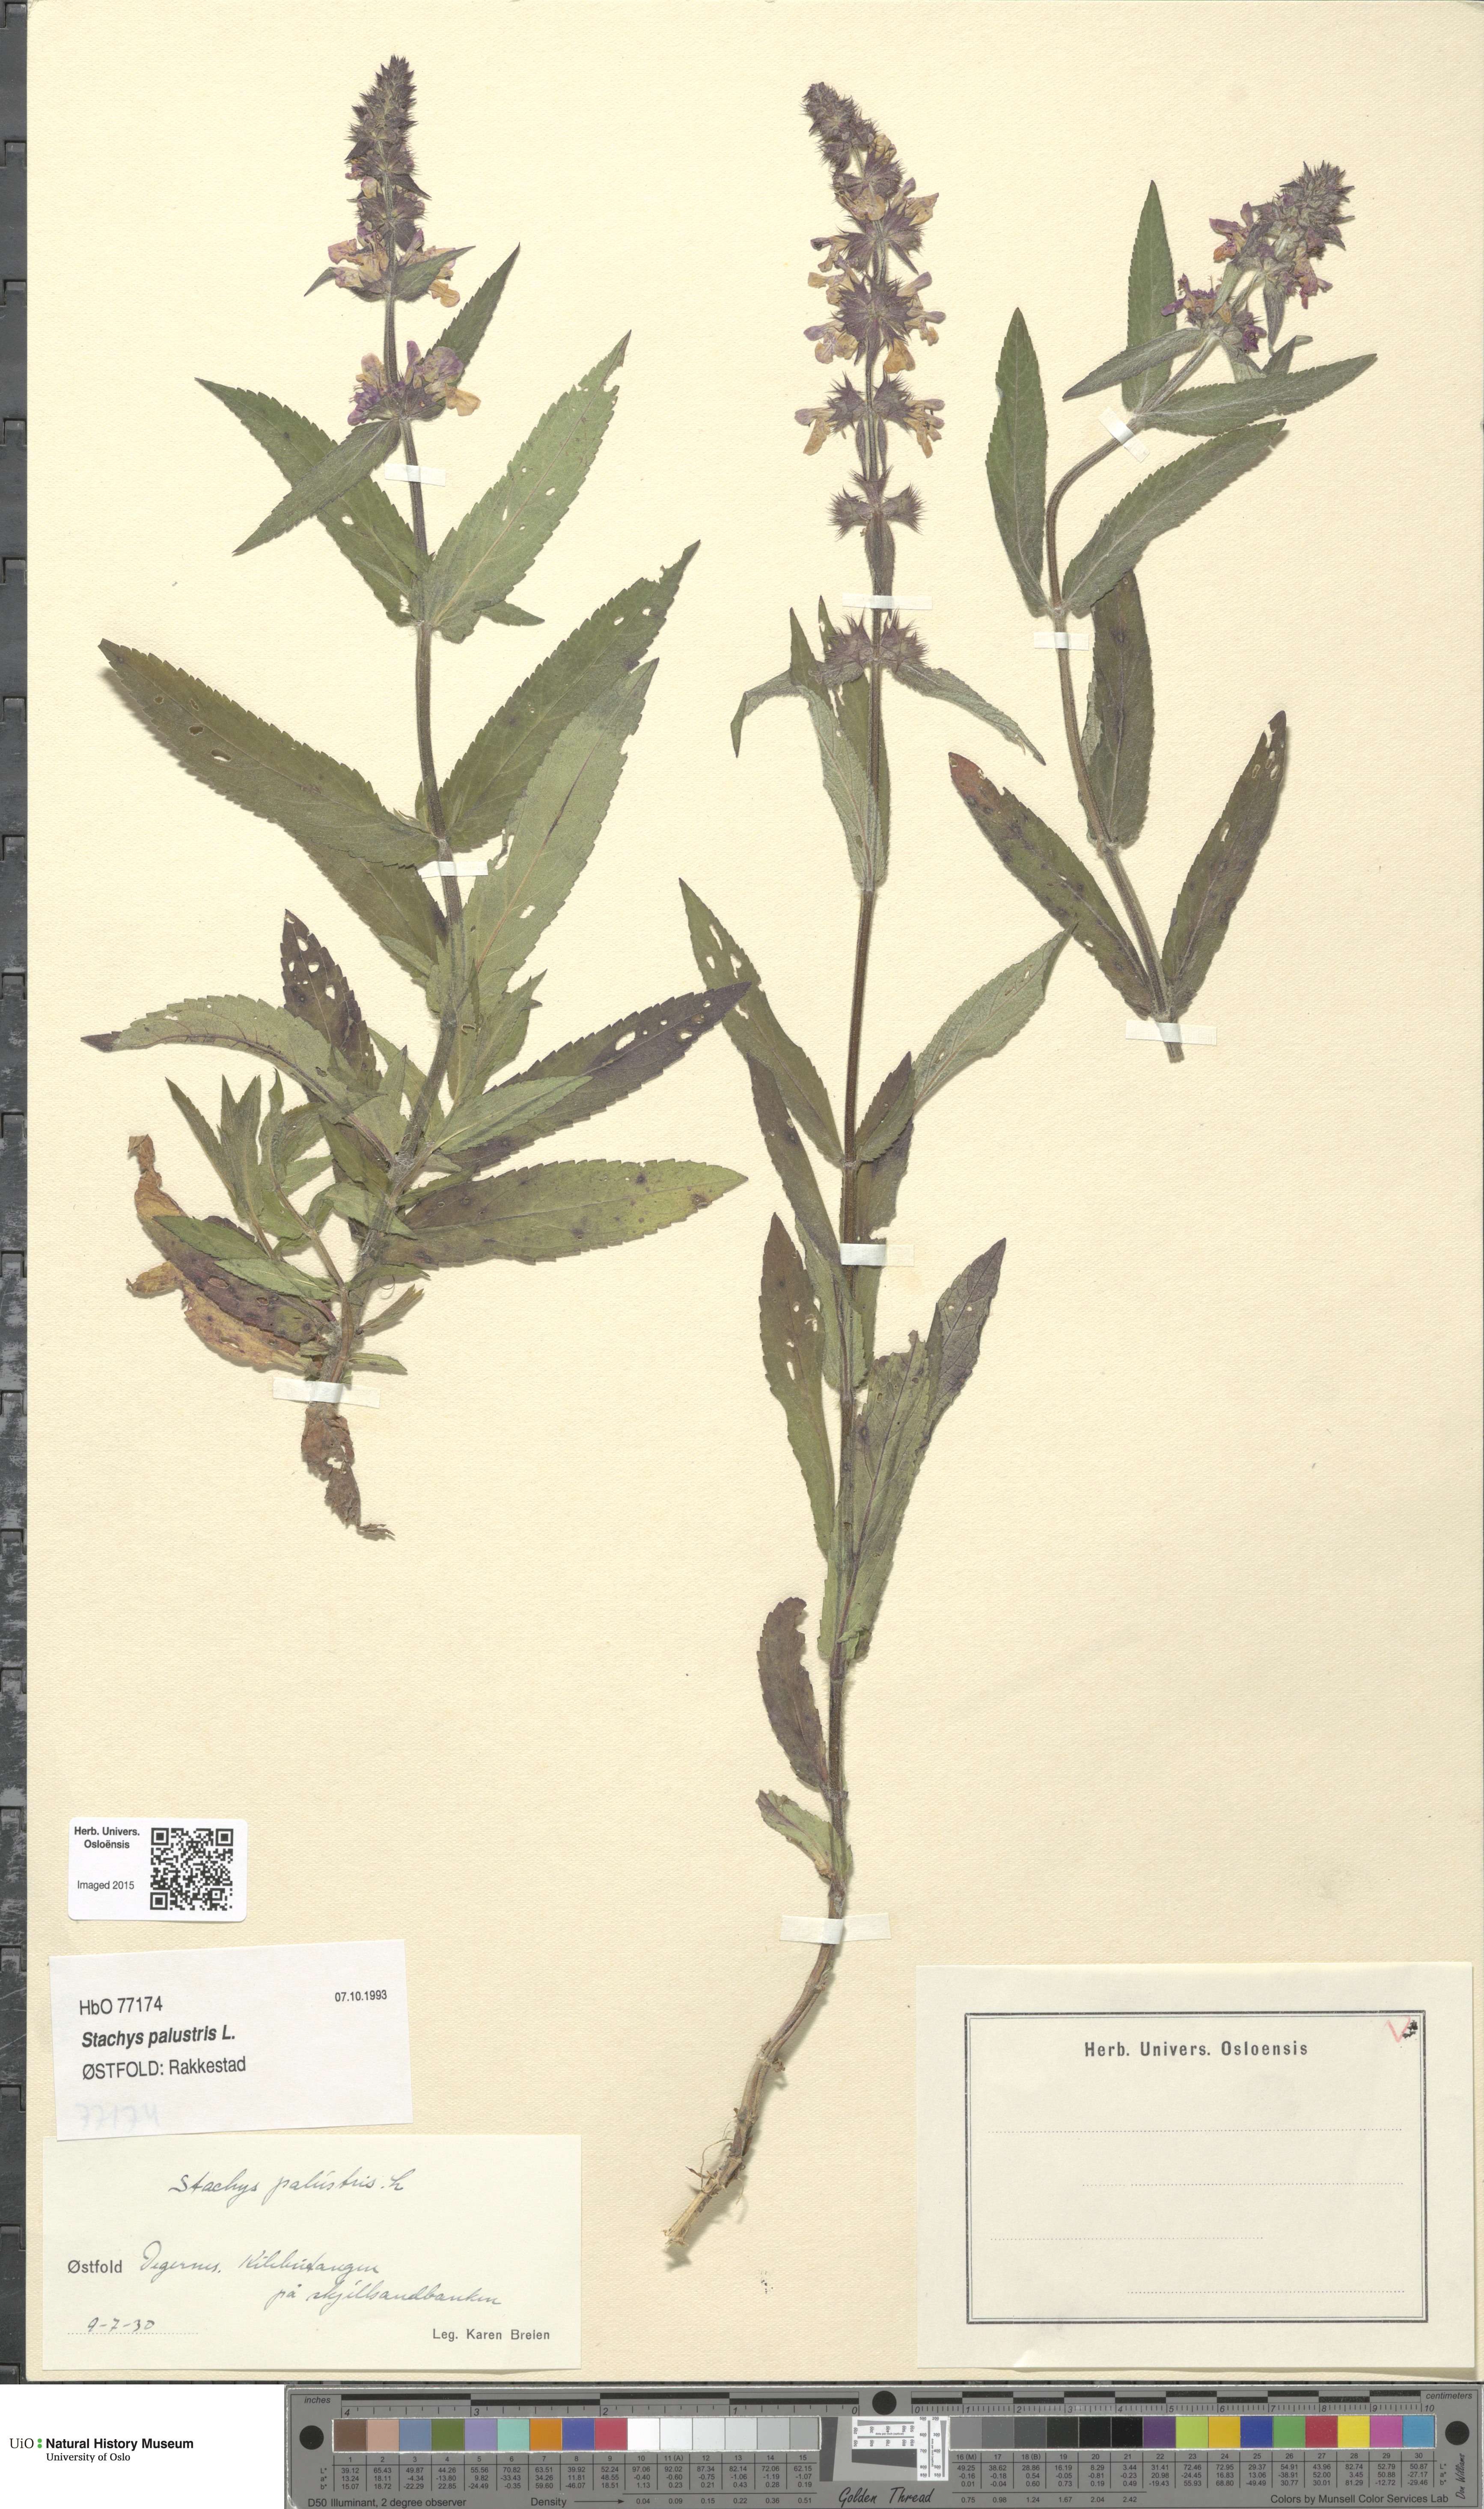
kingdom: Plantae
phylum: Tracheophyta
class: Magnoliopsida
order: Lamiales
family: Lamiaceae
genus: Stachys
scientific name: Stachys palustris
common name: Marsh woundwort
